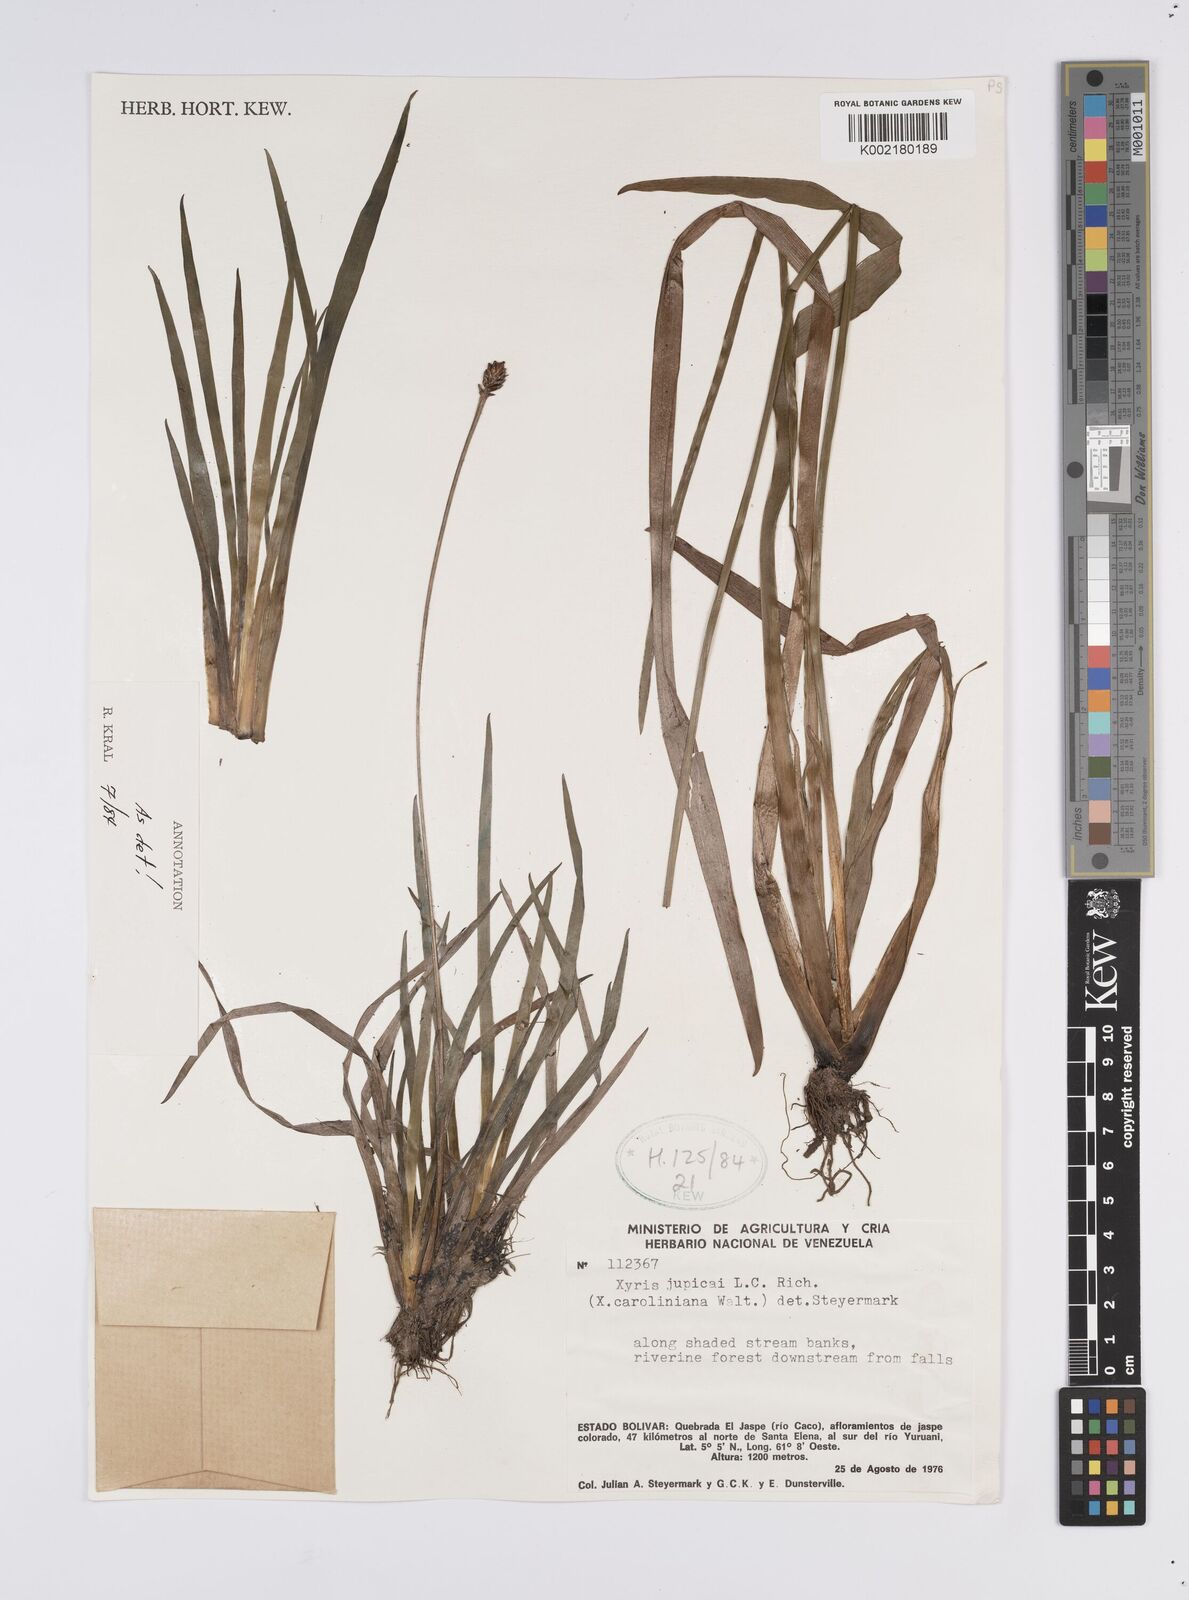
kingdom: Plantae
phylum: Tracheophyta
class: Liliopsida
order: Poales
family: Xyridaceae
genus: Xyris
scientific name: Xyris jupicai
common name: Richard's yelloweyed grass
